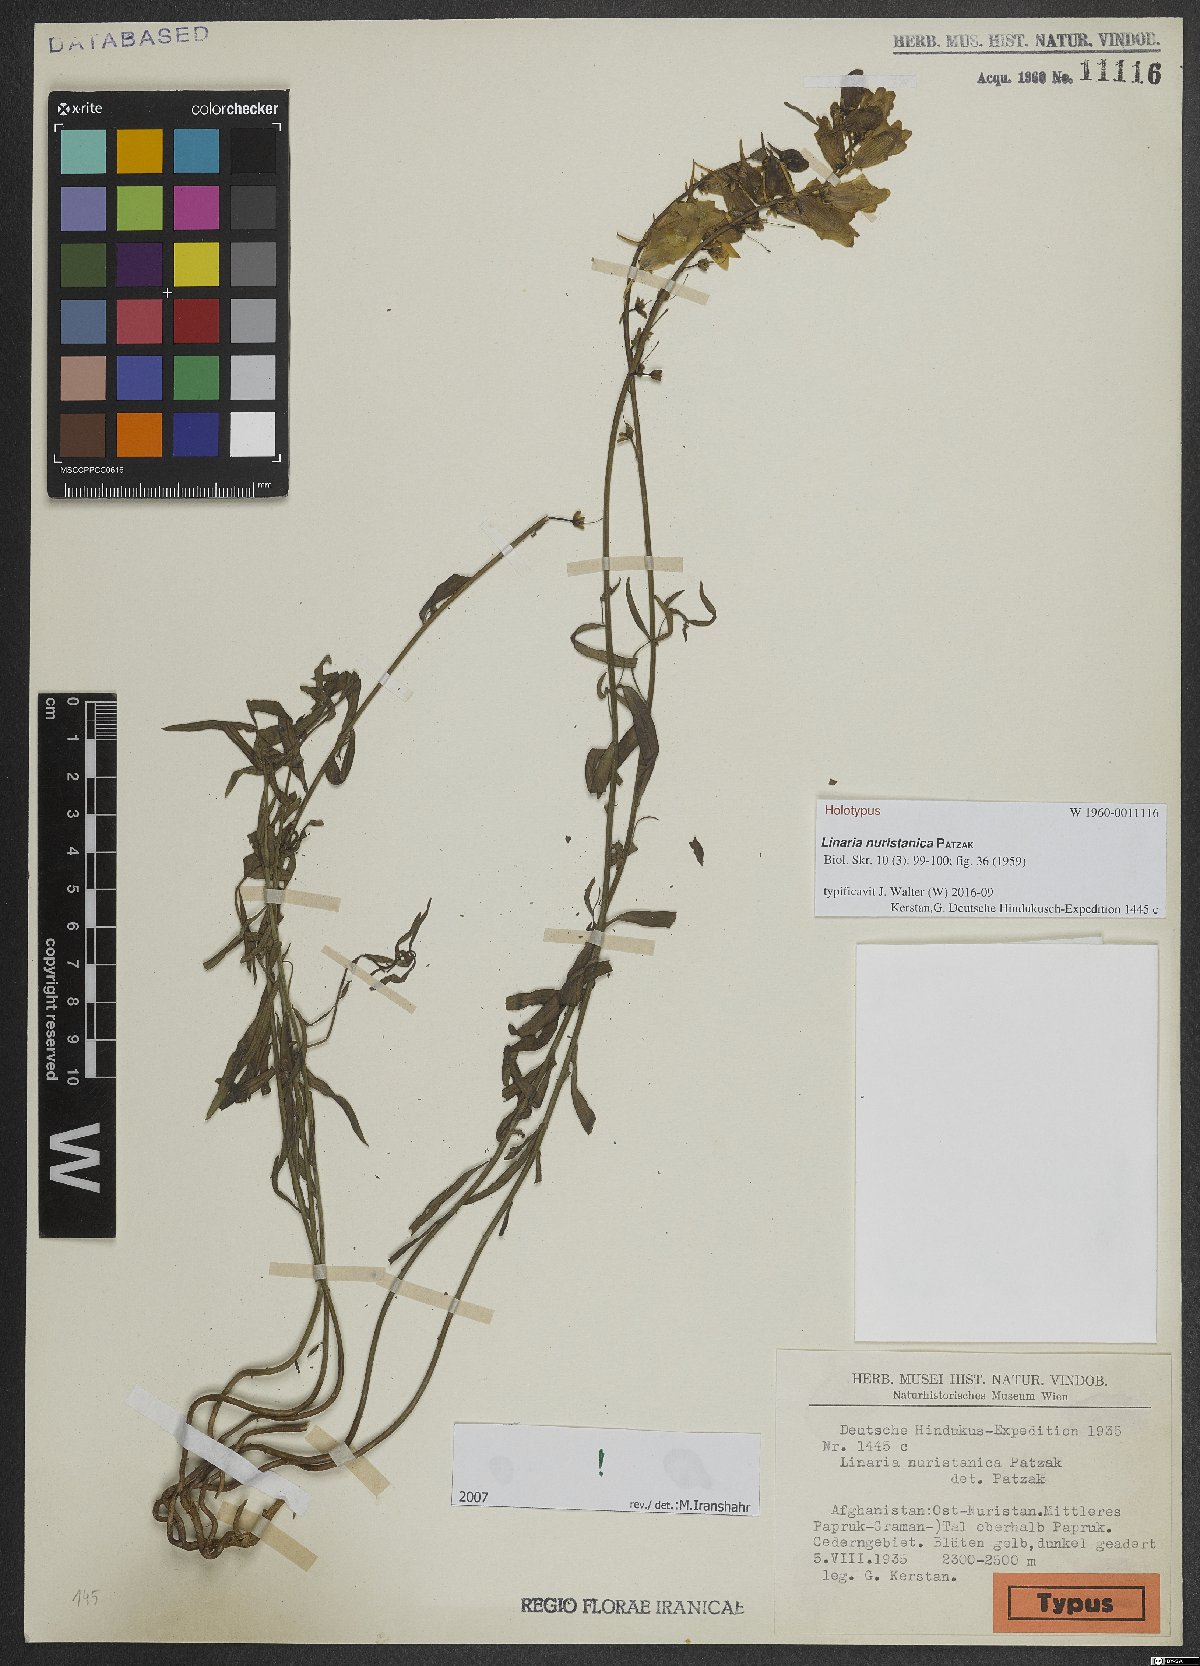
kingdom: Plantae
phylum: Tracheophyta
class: Magnoliopsida
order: Lamiales
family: Plantaginaceae
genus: Linaria
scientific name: Linaria grandiflora
